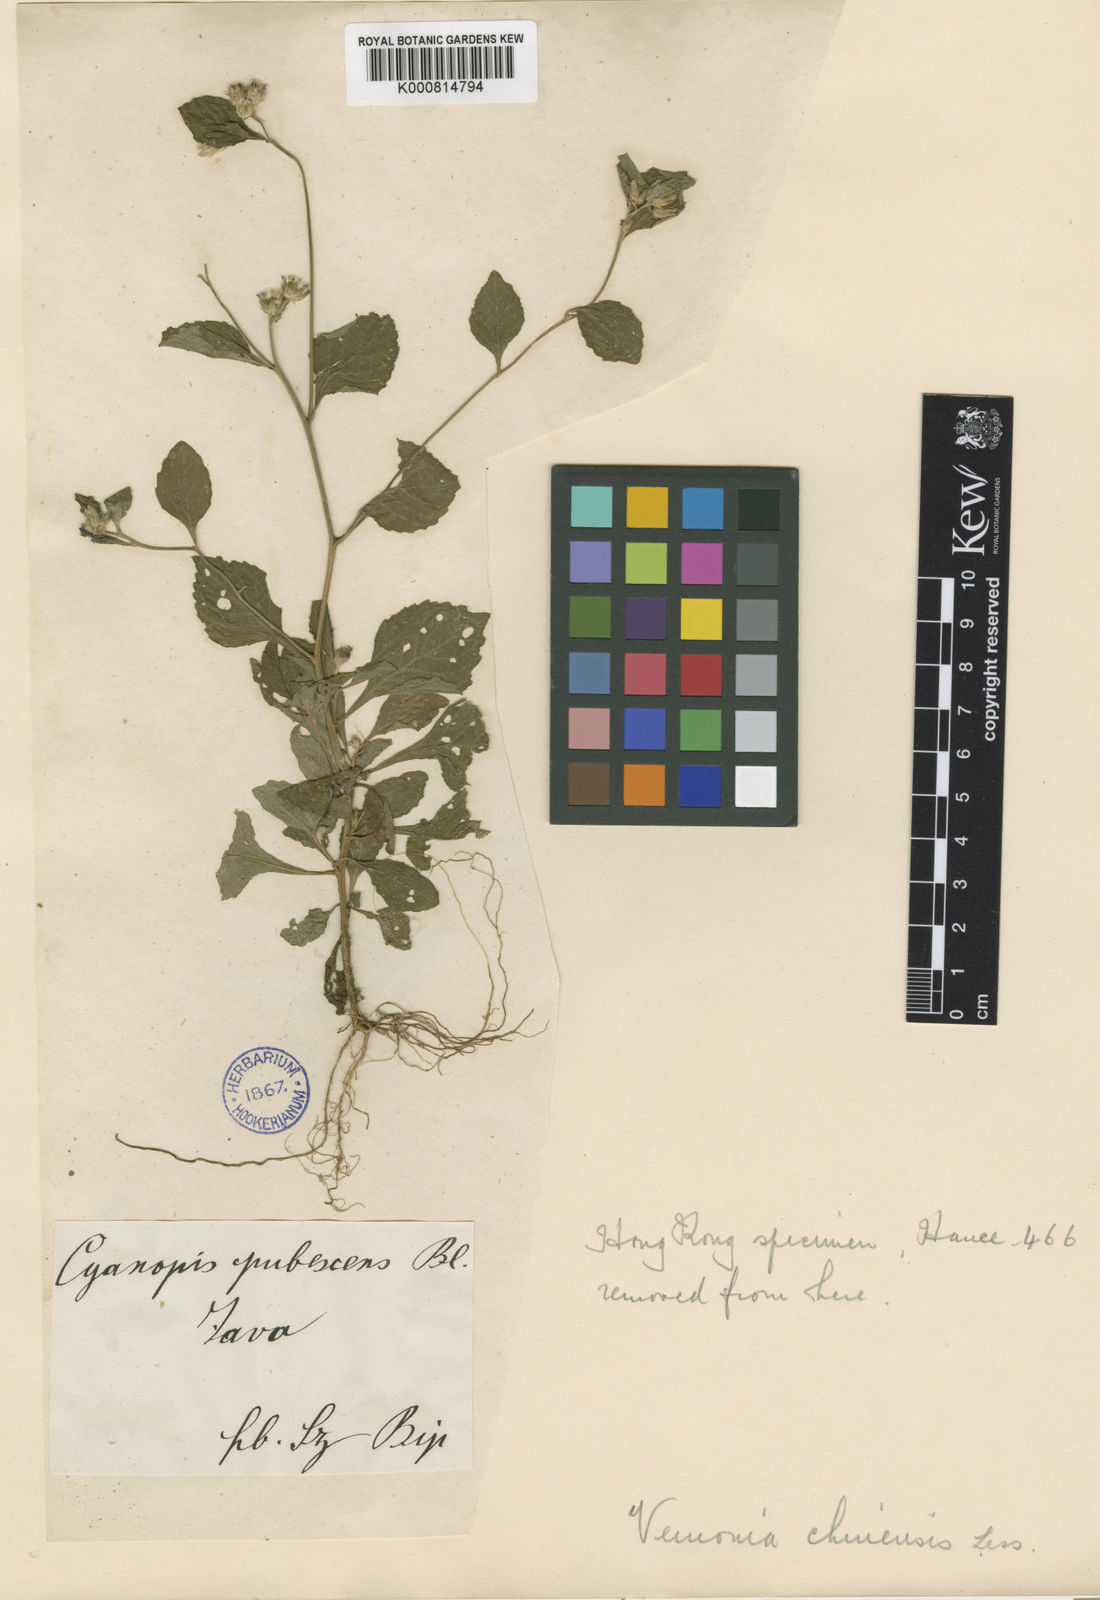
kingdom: Plantae
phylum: Tracheophyta
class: Magnoliopsida
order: Asterales
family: Asteraceae
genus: Vernonia
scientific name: Vernonia
